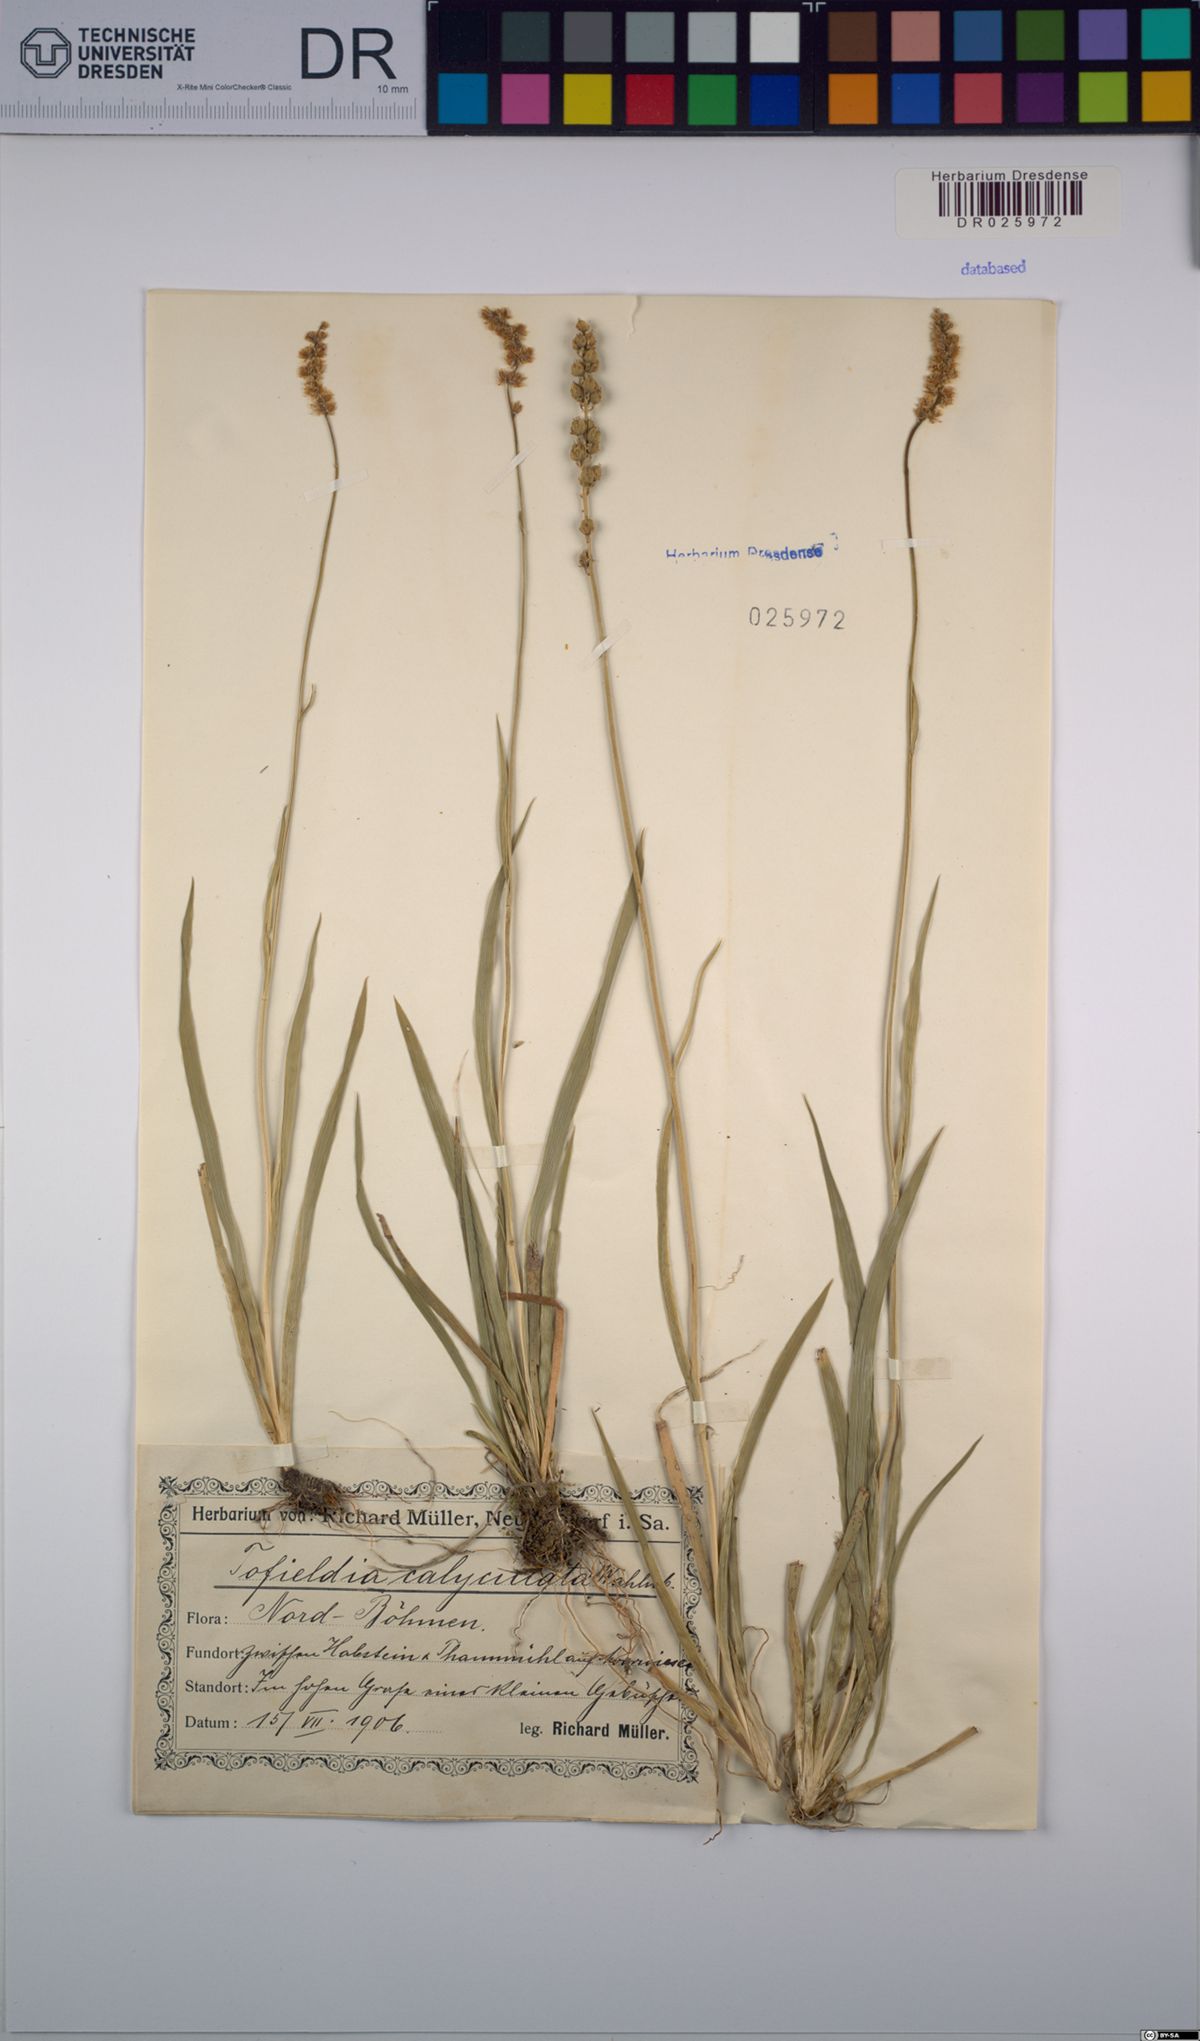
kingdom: Plantae
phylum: Tracheophyta
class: Liliopsida
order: Alismatales
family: Tofieldiaceae
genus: Tofieldia
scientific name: Tofieldia calyculata
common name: German-asphodel
